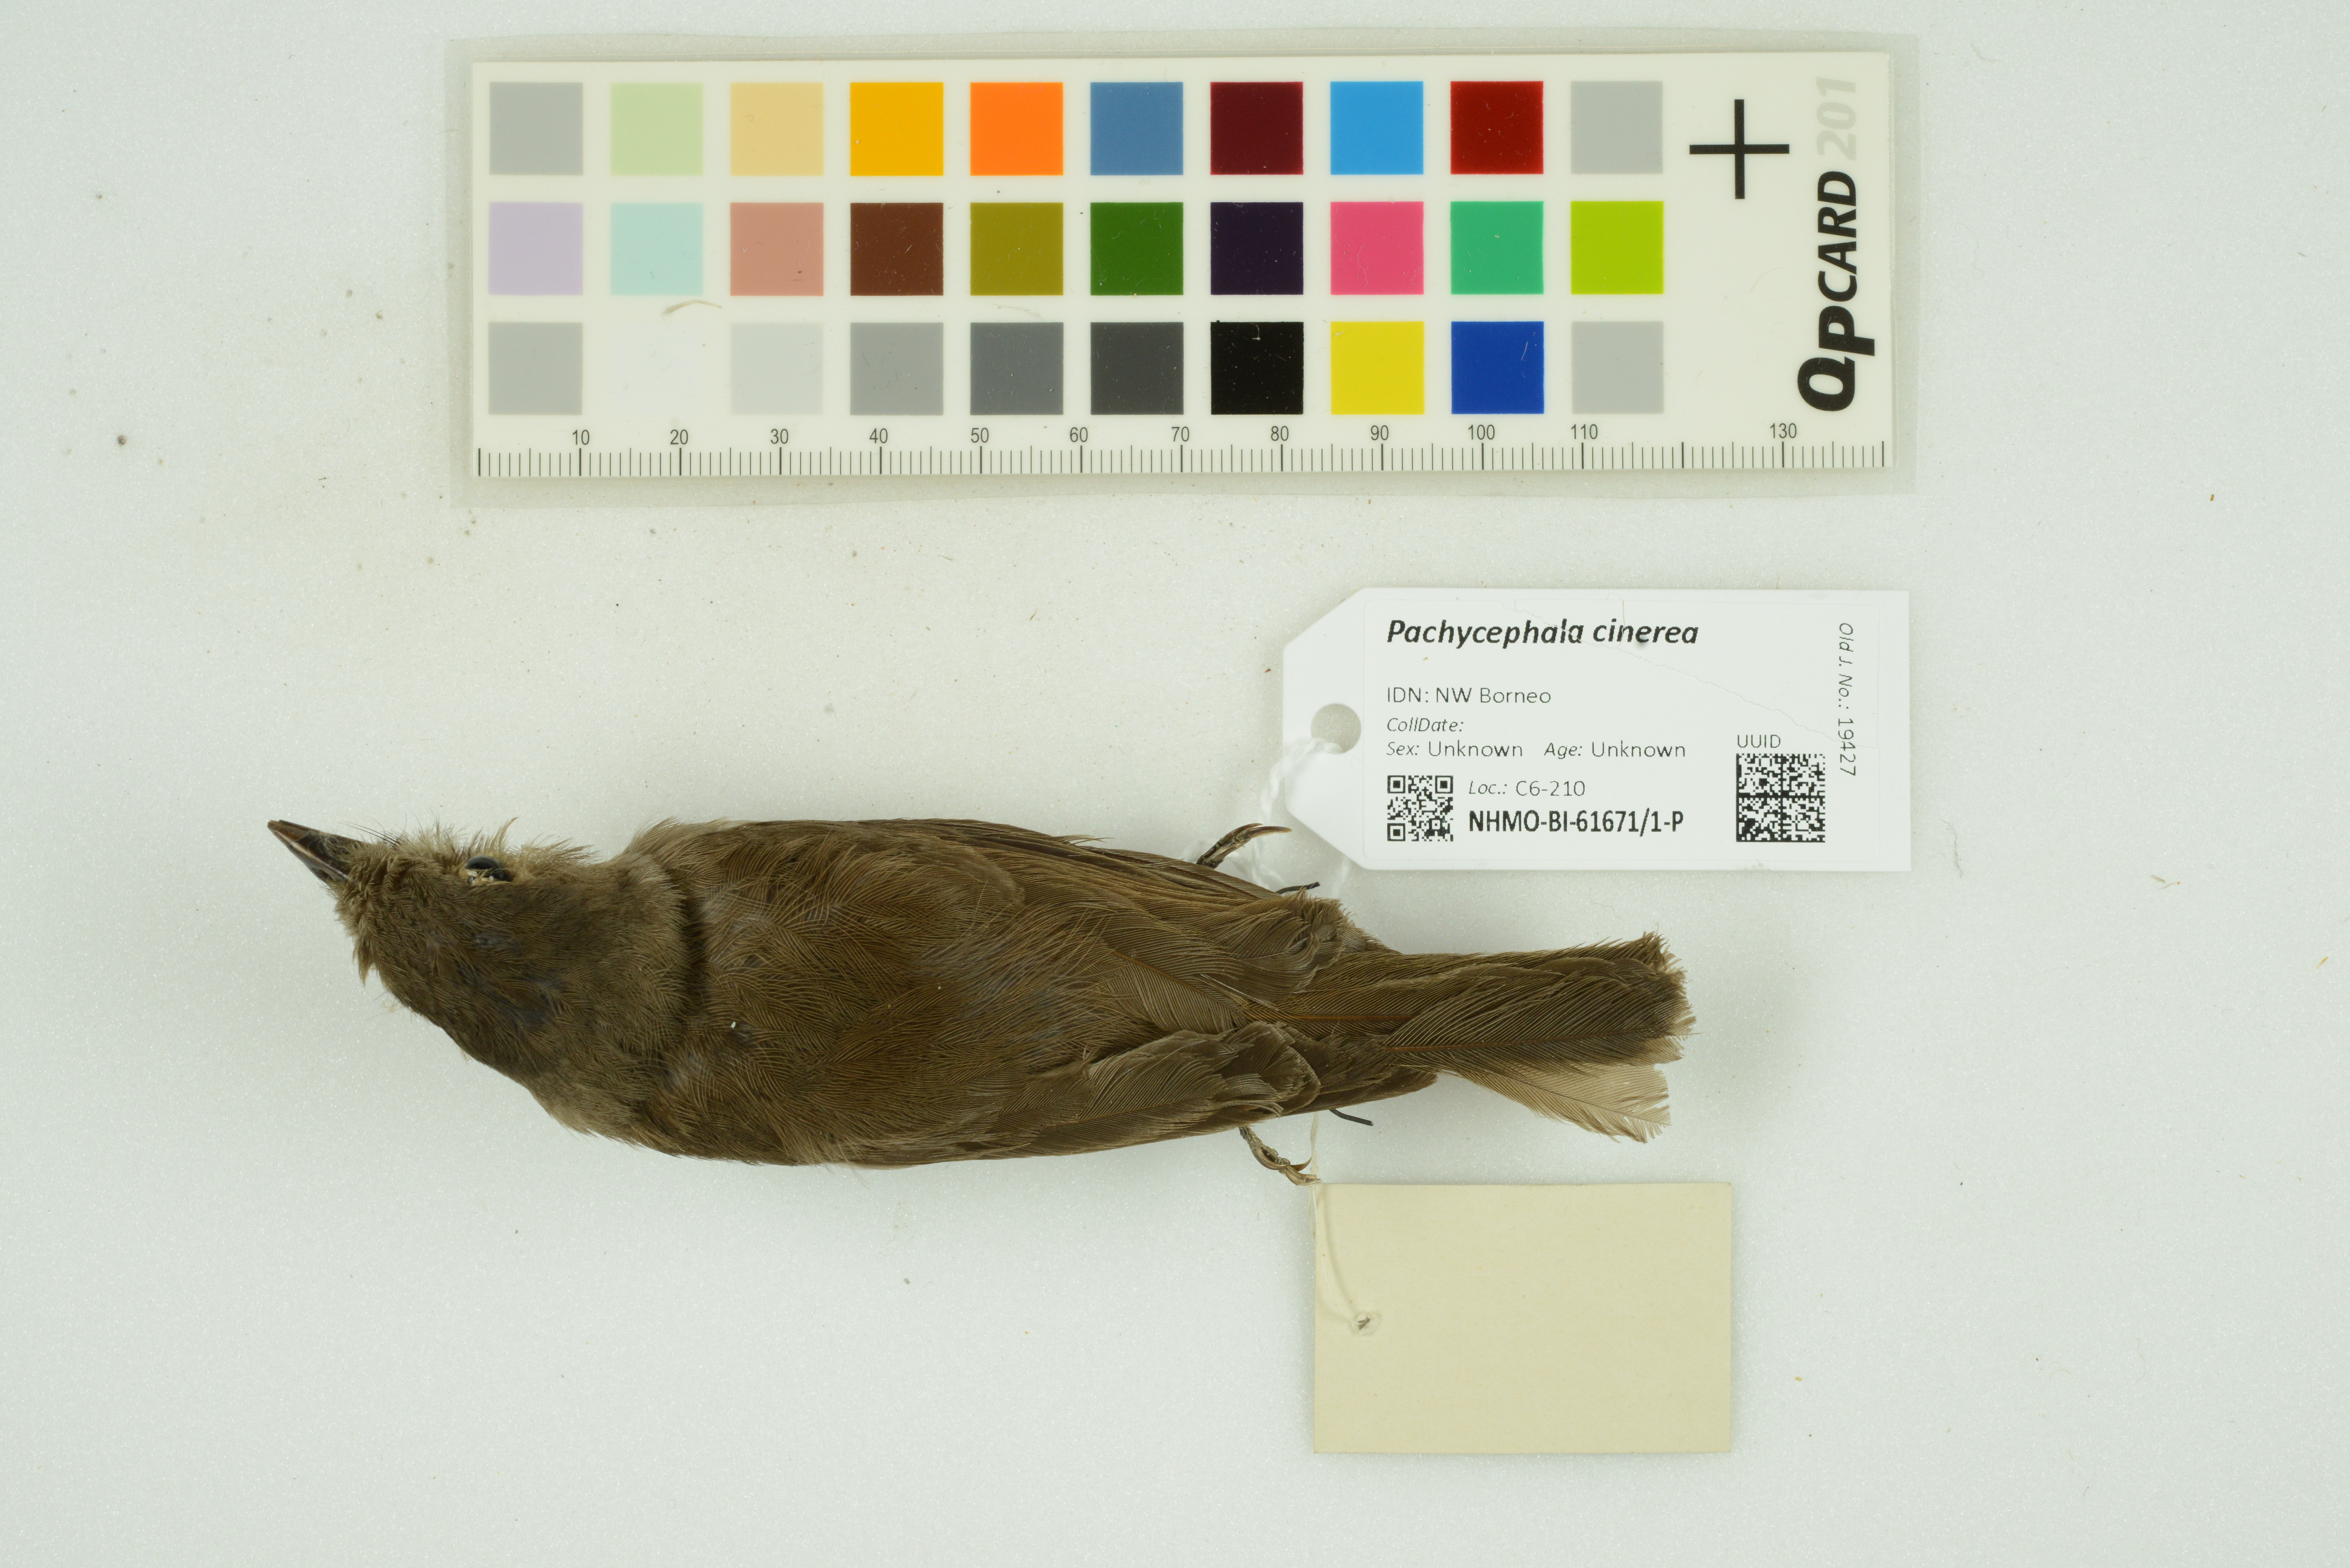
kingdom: Animalia
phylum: Chordata
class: Aves
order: Passeriformes
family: Pachycephalidae
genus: Pachycephala
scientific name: Pachycephala cinerea
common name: Mangrove whistler
